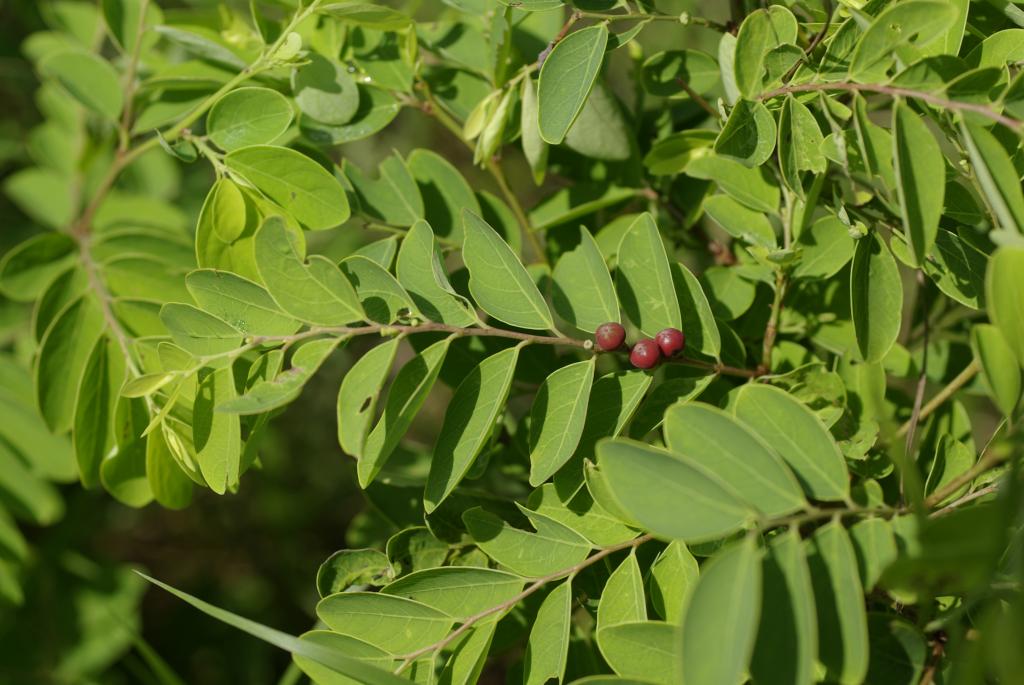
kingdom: Plantae
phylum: Tracheophyta
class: Magnoliopsida
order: Malpighiales
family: Phyllanthaceae
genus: Breynia
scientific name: Breynia officinalis
